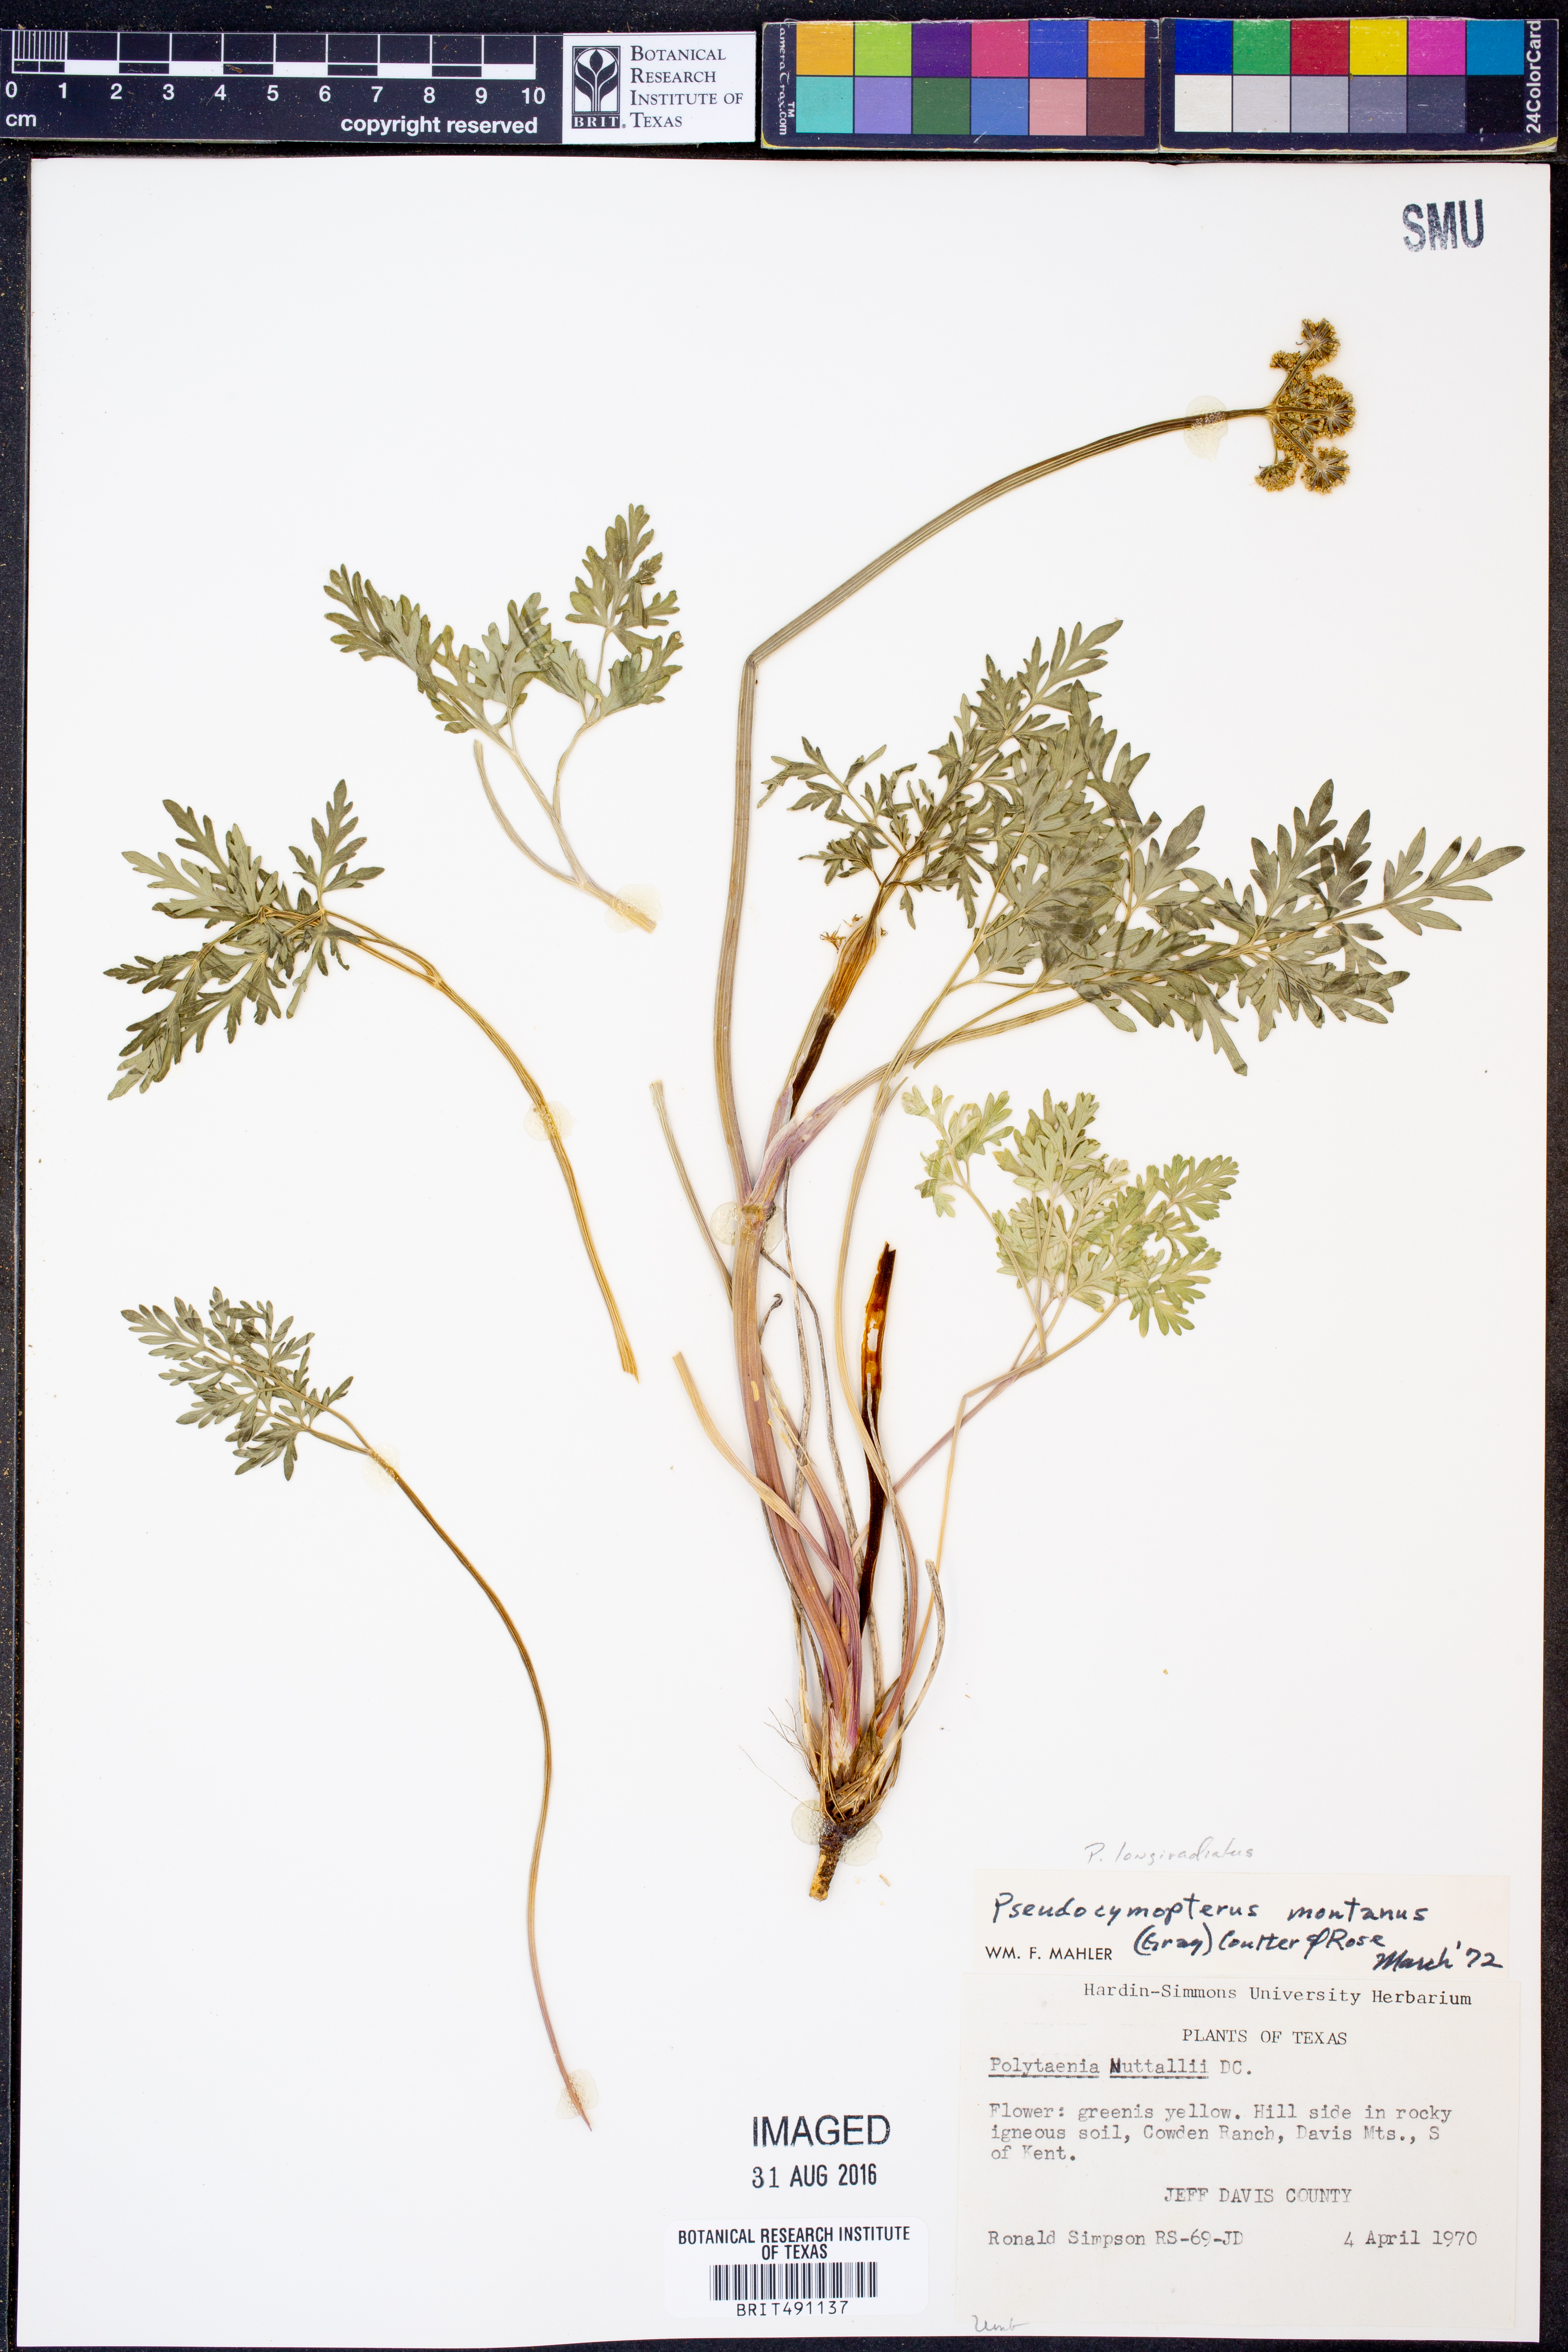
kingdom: Plantae
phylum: Tracheophyta
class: Magnoliopsida
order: Apiales
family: Apiaceae
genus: Pseudocymopterus
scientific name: Pseudocymopterus longiradiatus
